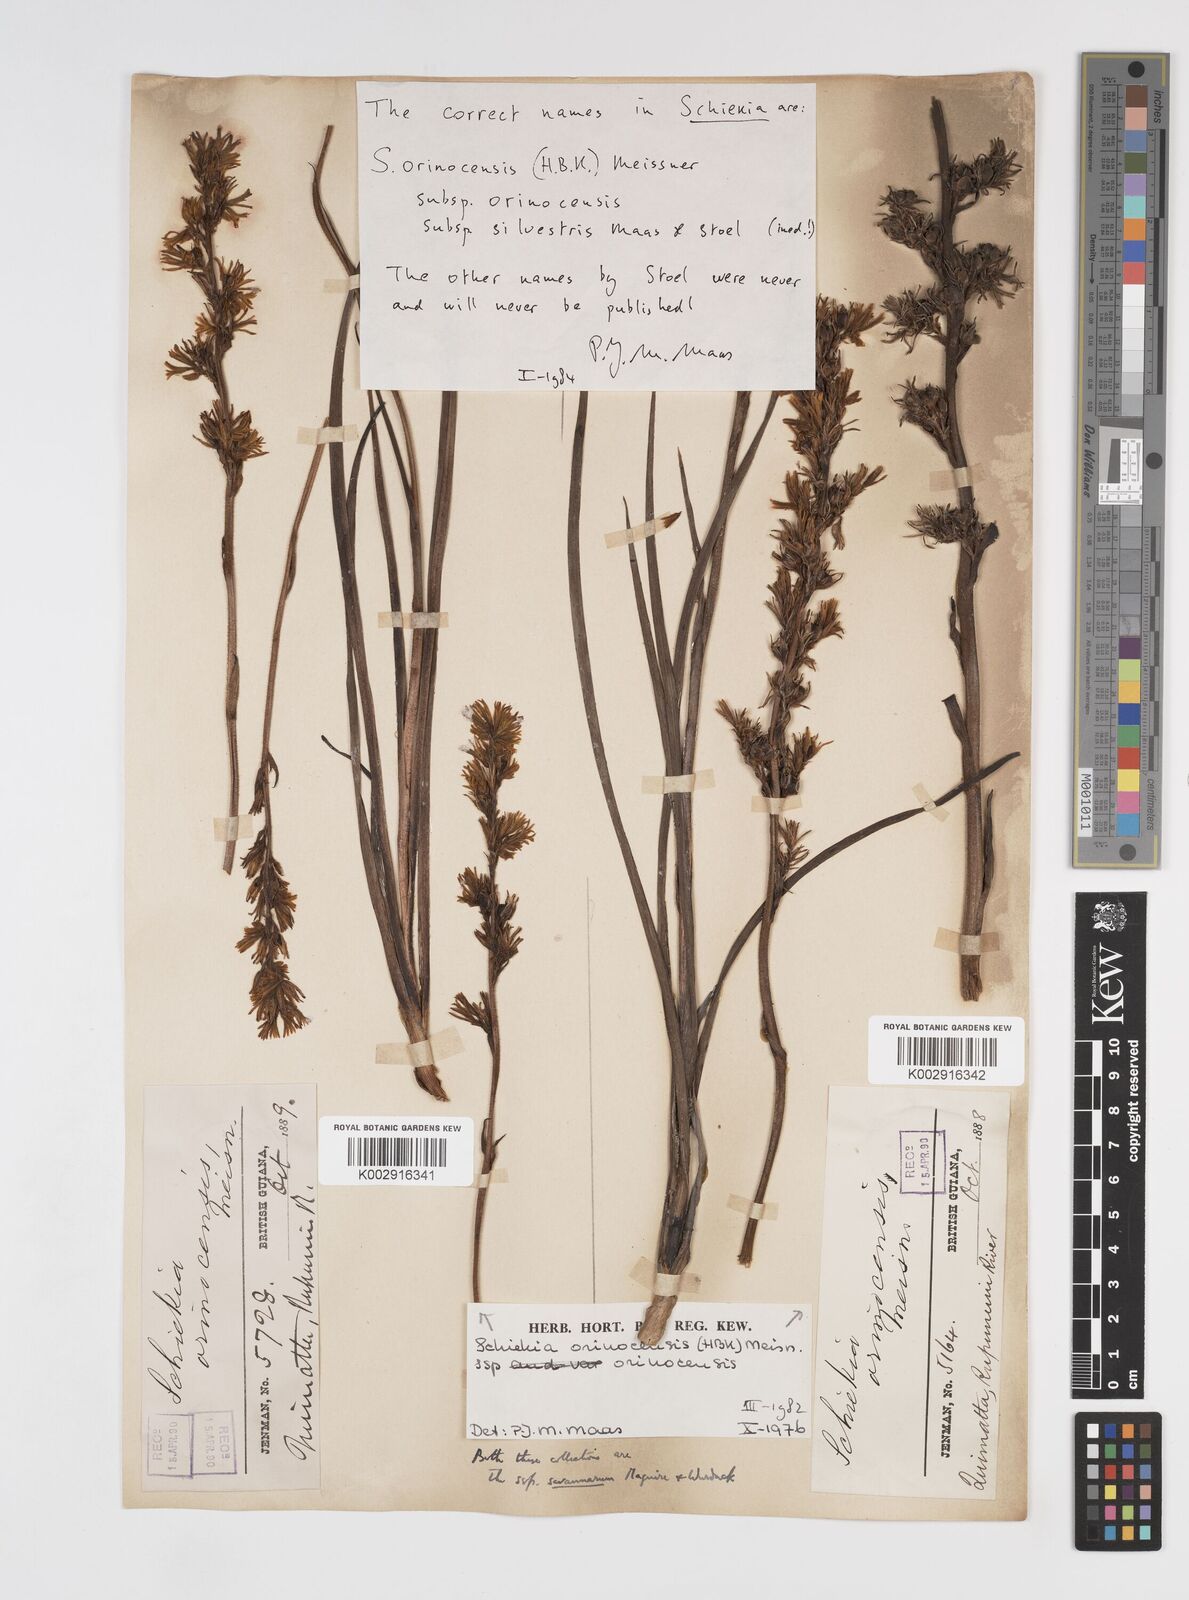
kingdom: Plantae
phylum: Tracheophyta
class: Liliopsida
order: Commelinales
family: Haemodoraceae
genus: Schiekia
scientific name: Schiekia orinocensis
